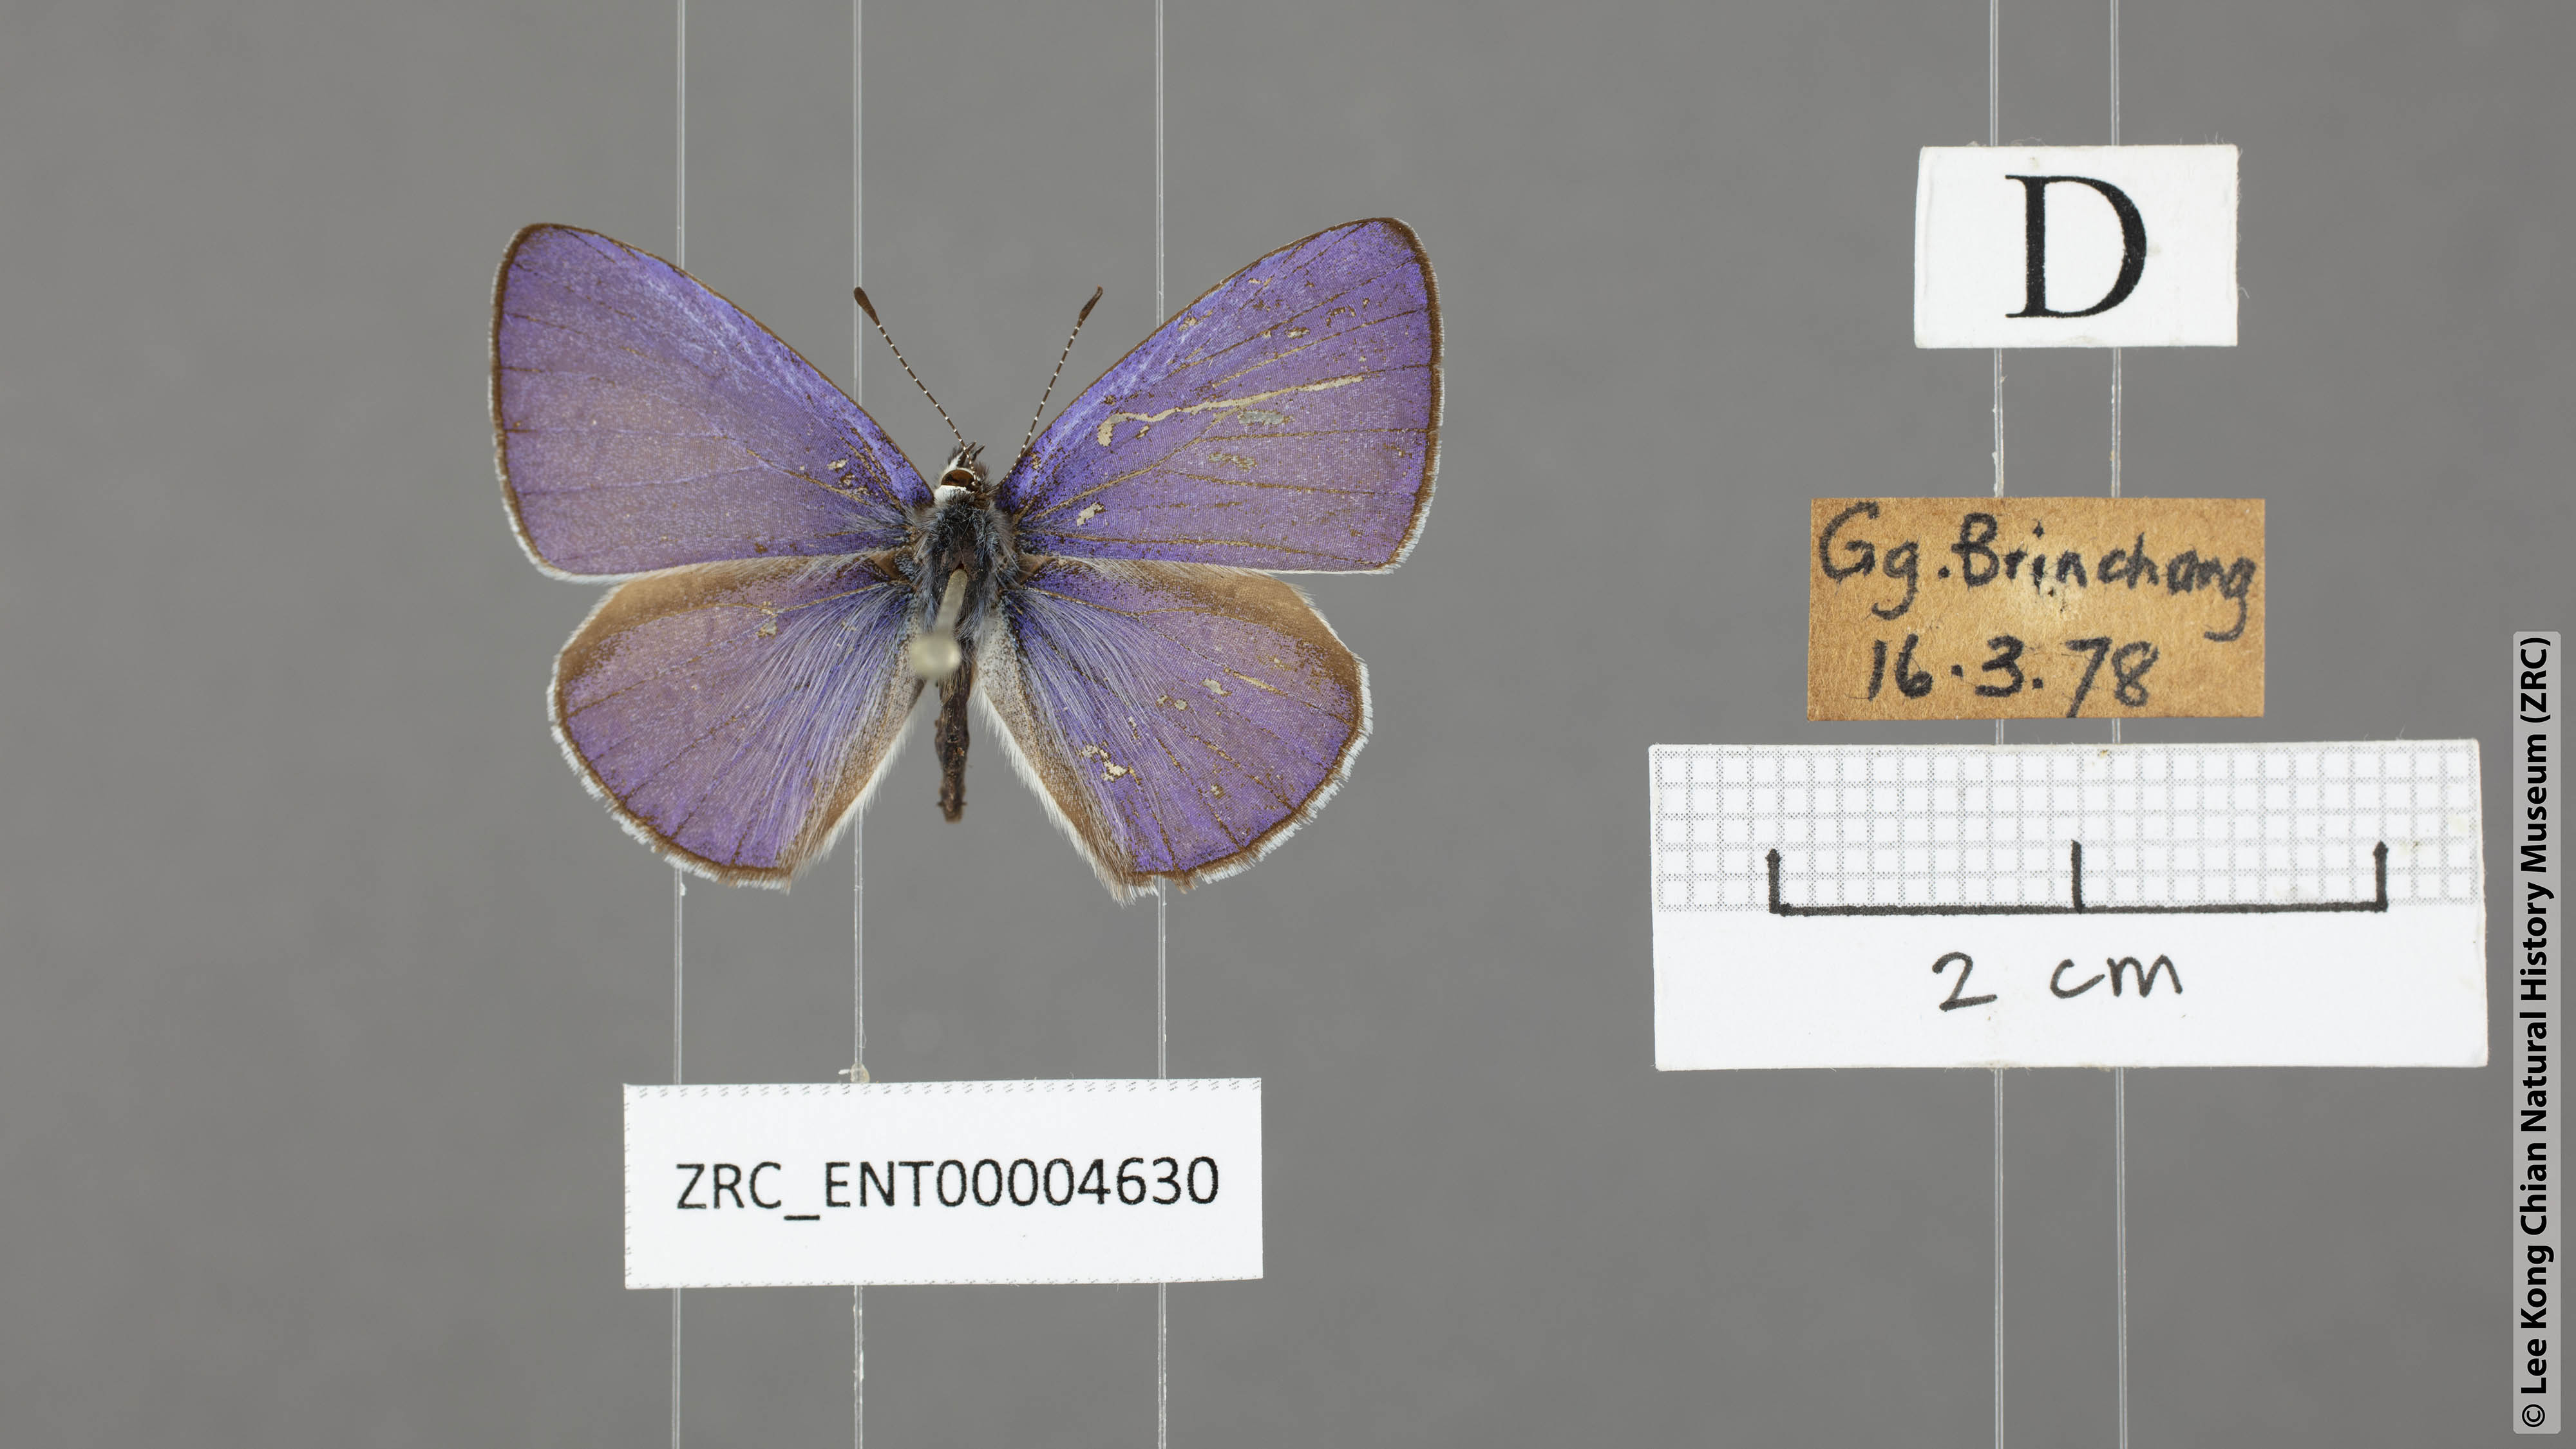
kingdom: Animalia
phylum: Arthropoda
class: Insecta
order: Lepidoptera
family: Lycaenidae
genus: Udara
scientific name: Udara
